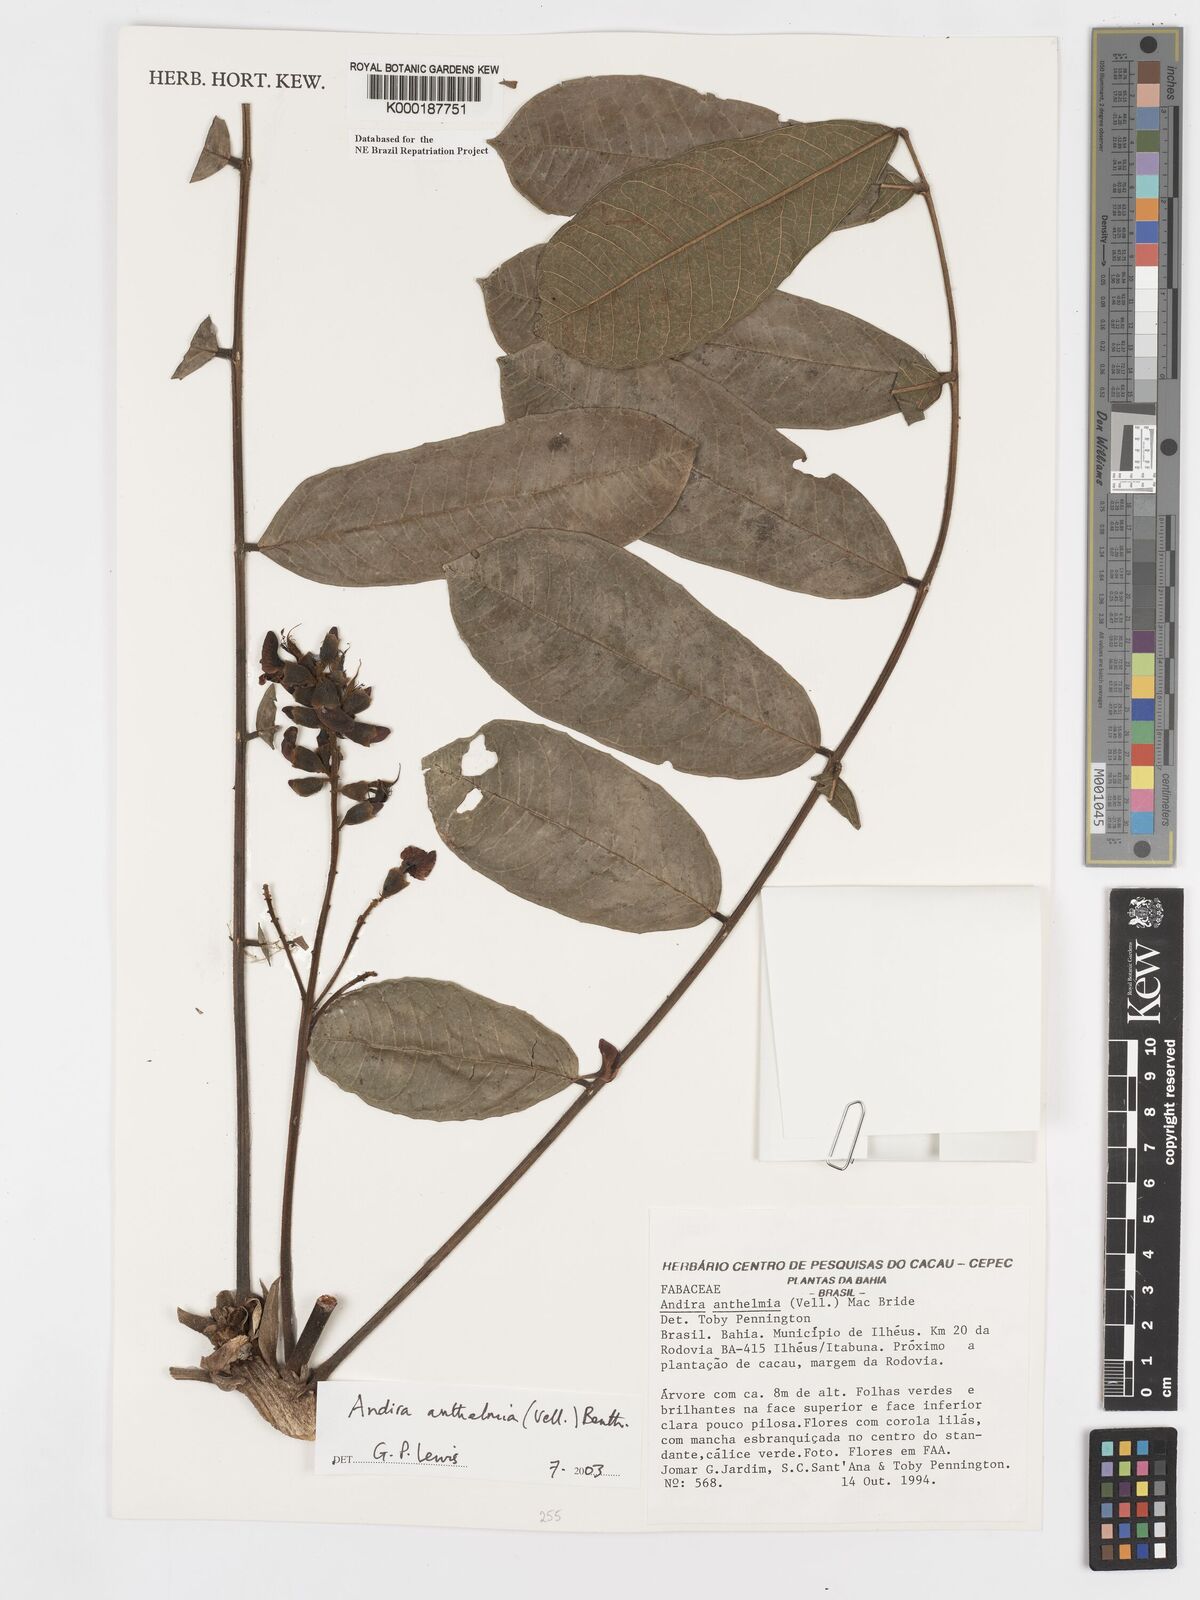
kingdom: Plantae
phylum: Tracheophyta
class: Magnoliopsida
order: Fabales
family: Fabaceae
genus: Andira
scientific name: Andira
